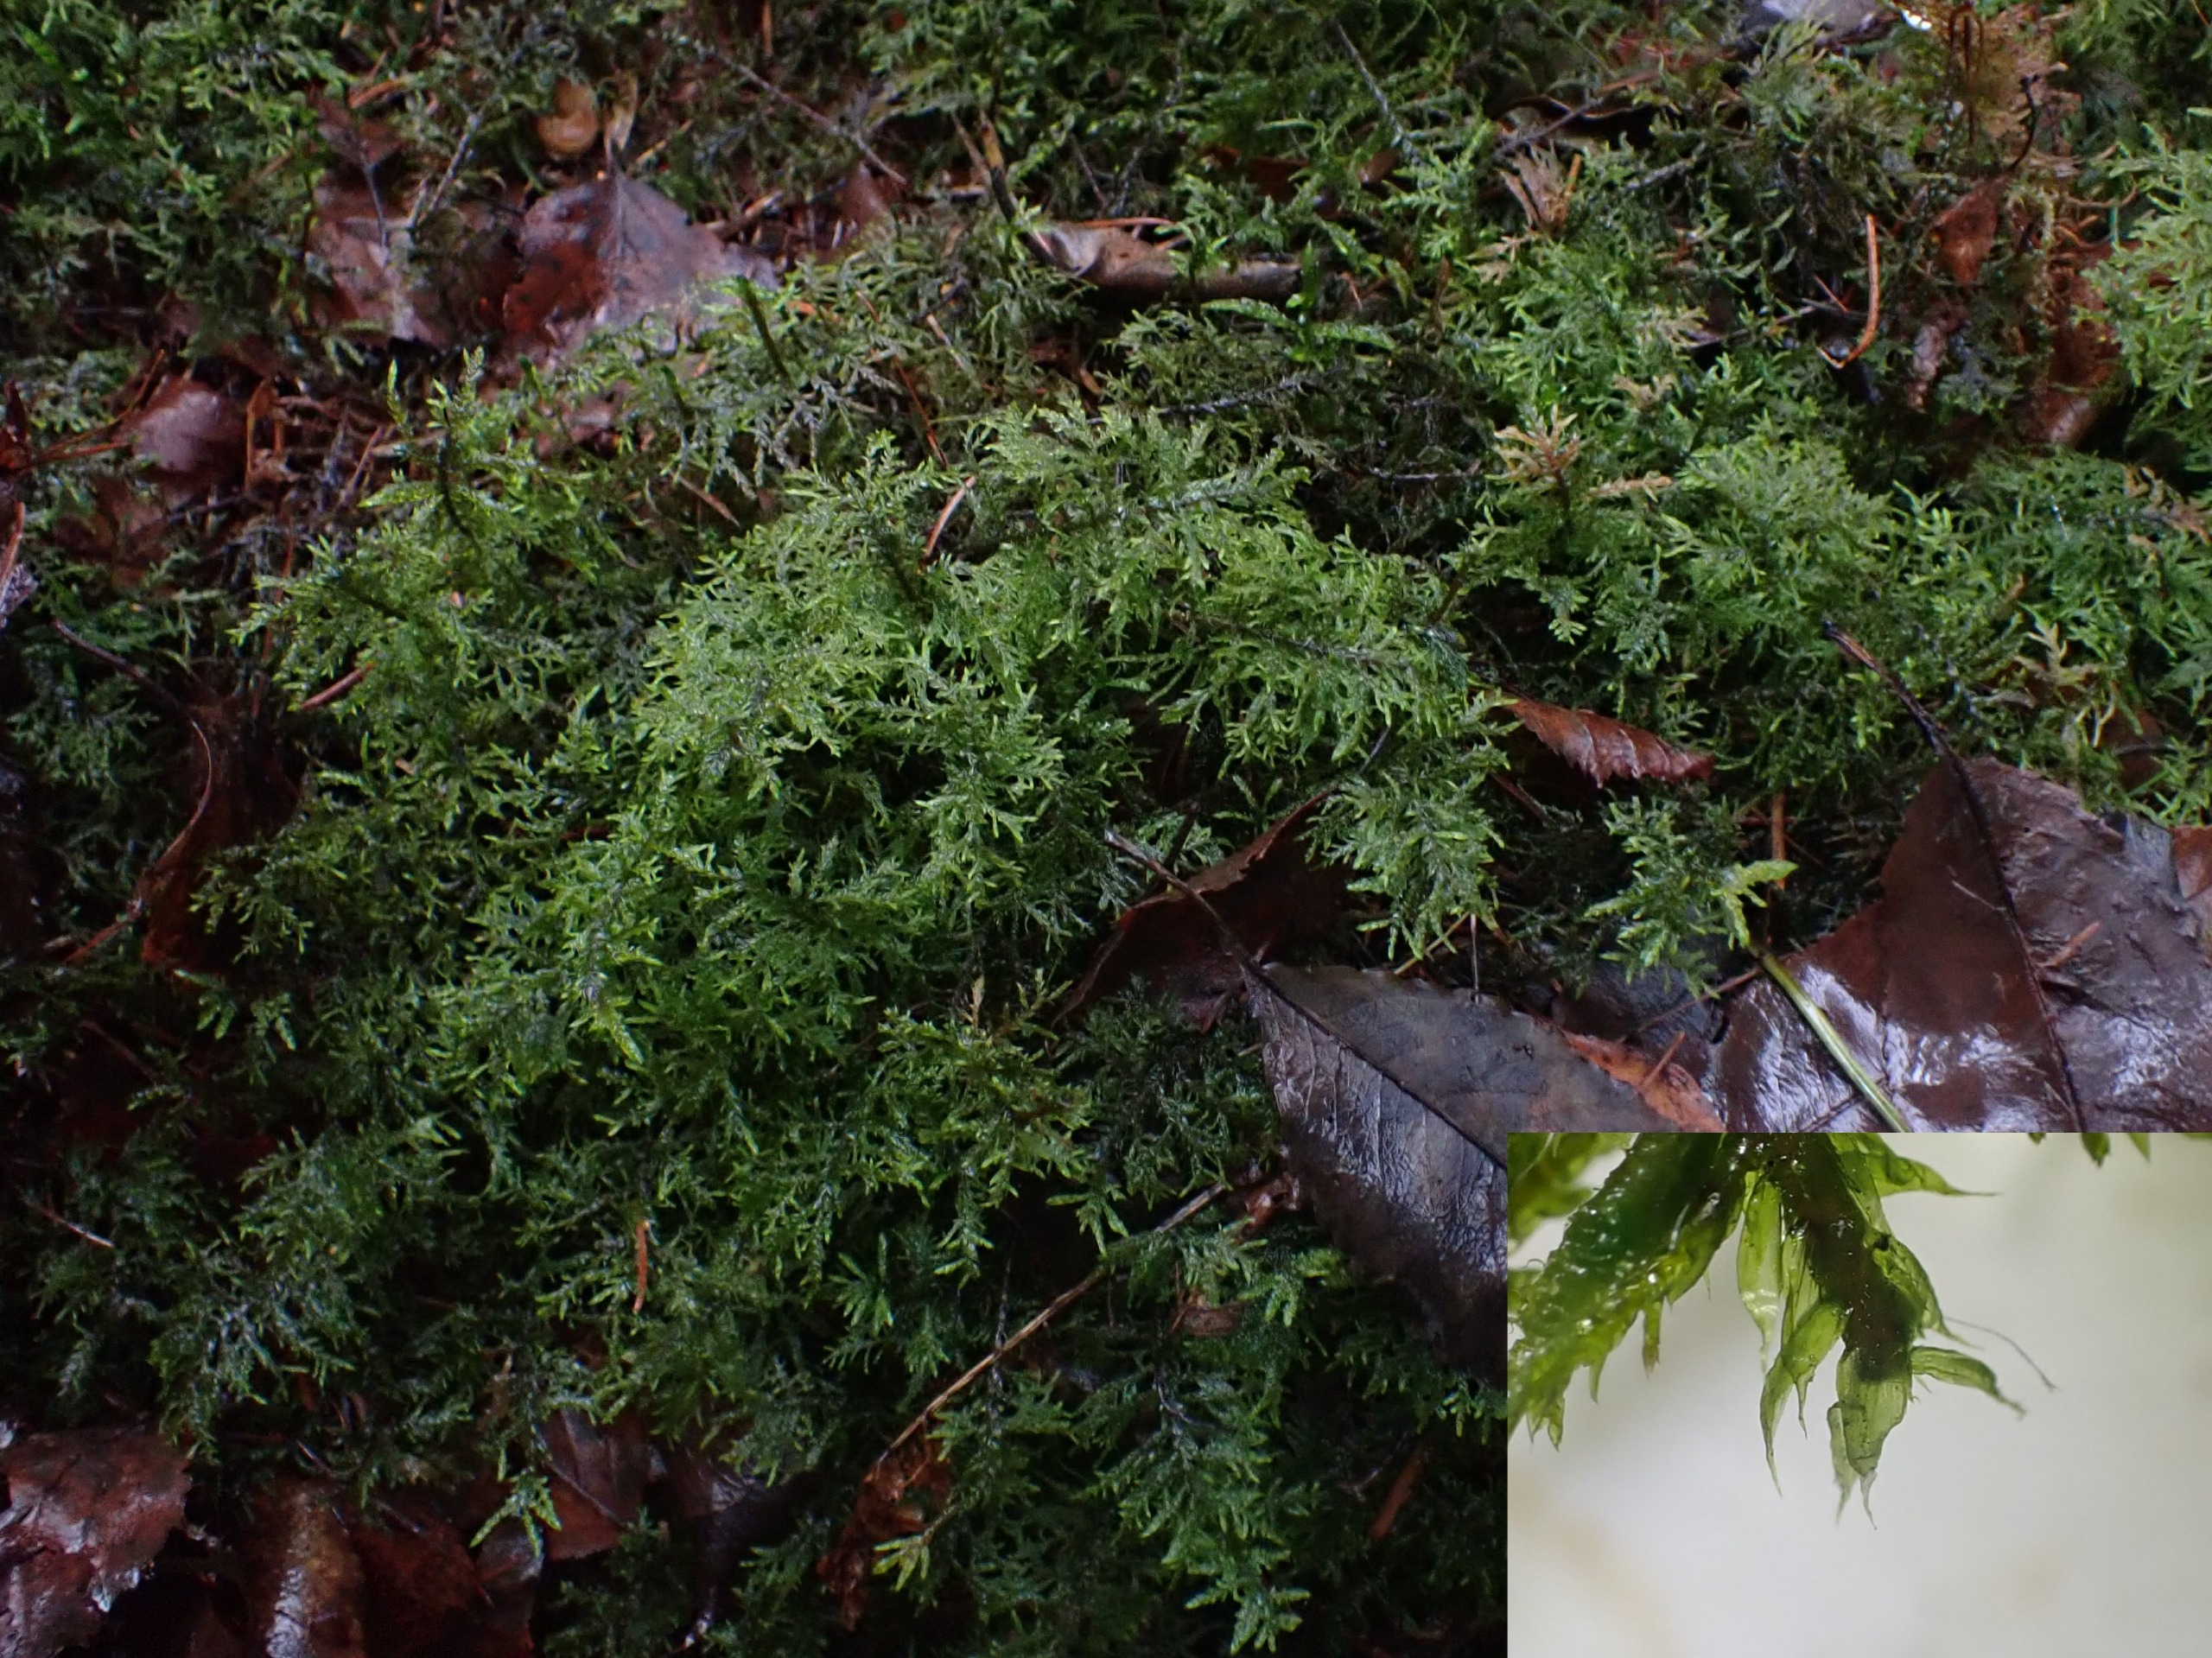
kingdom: Plantae
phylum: Bryophyta
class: Bryopsida
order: Hypnales
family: Hylocomiaceae
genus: Hylocomium
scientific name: Hylocomium splendens
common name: Almindelig etagemos
